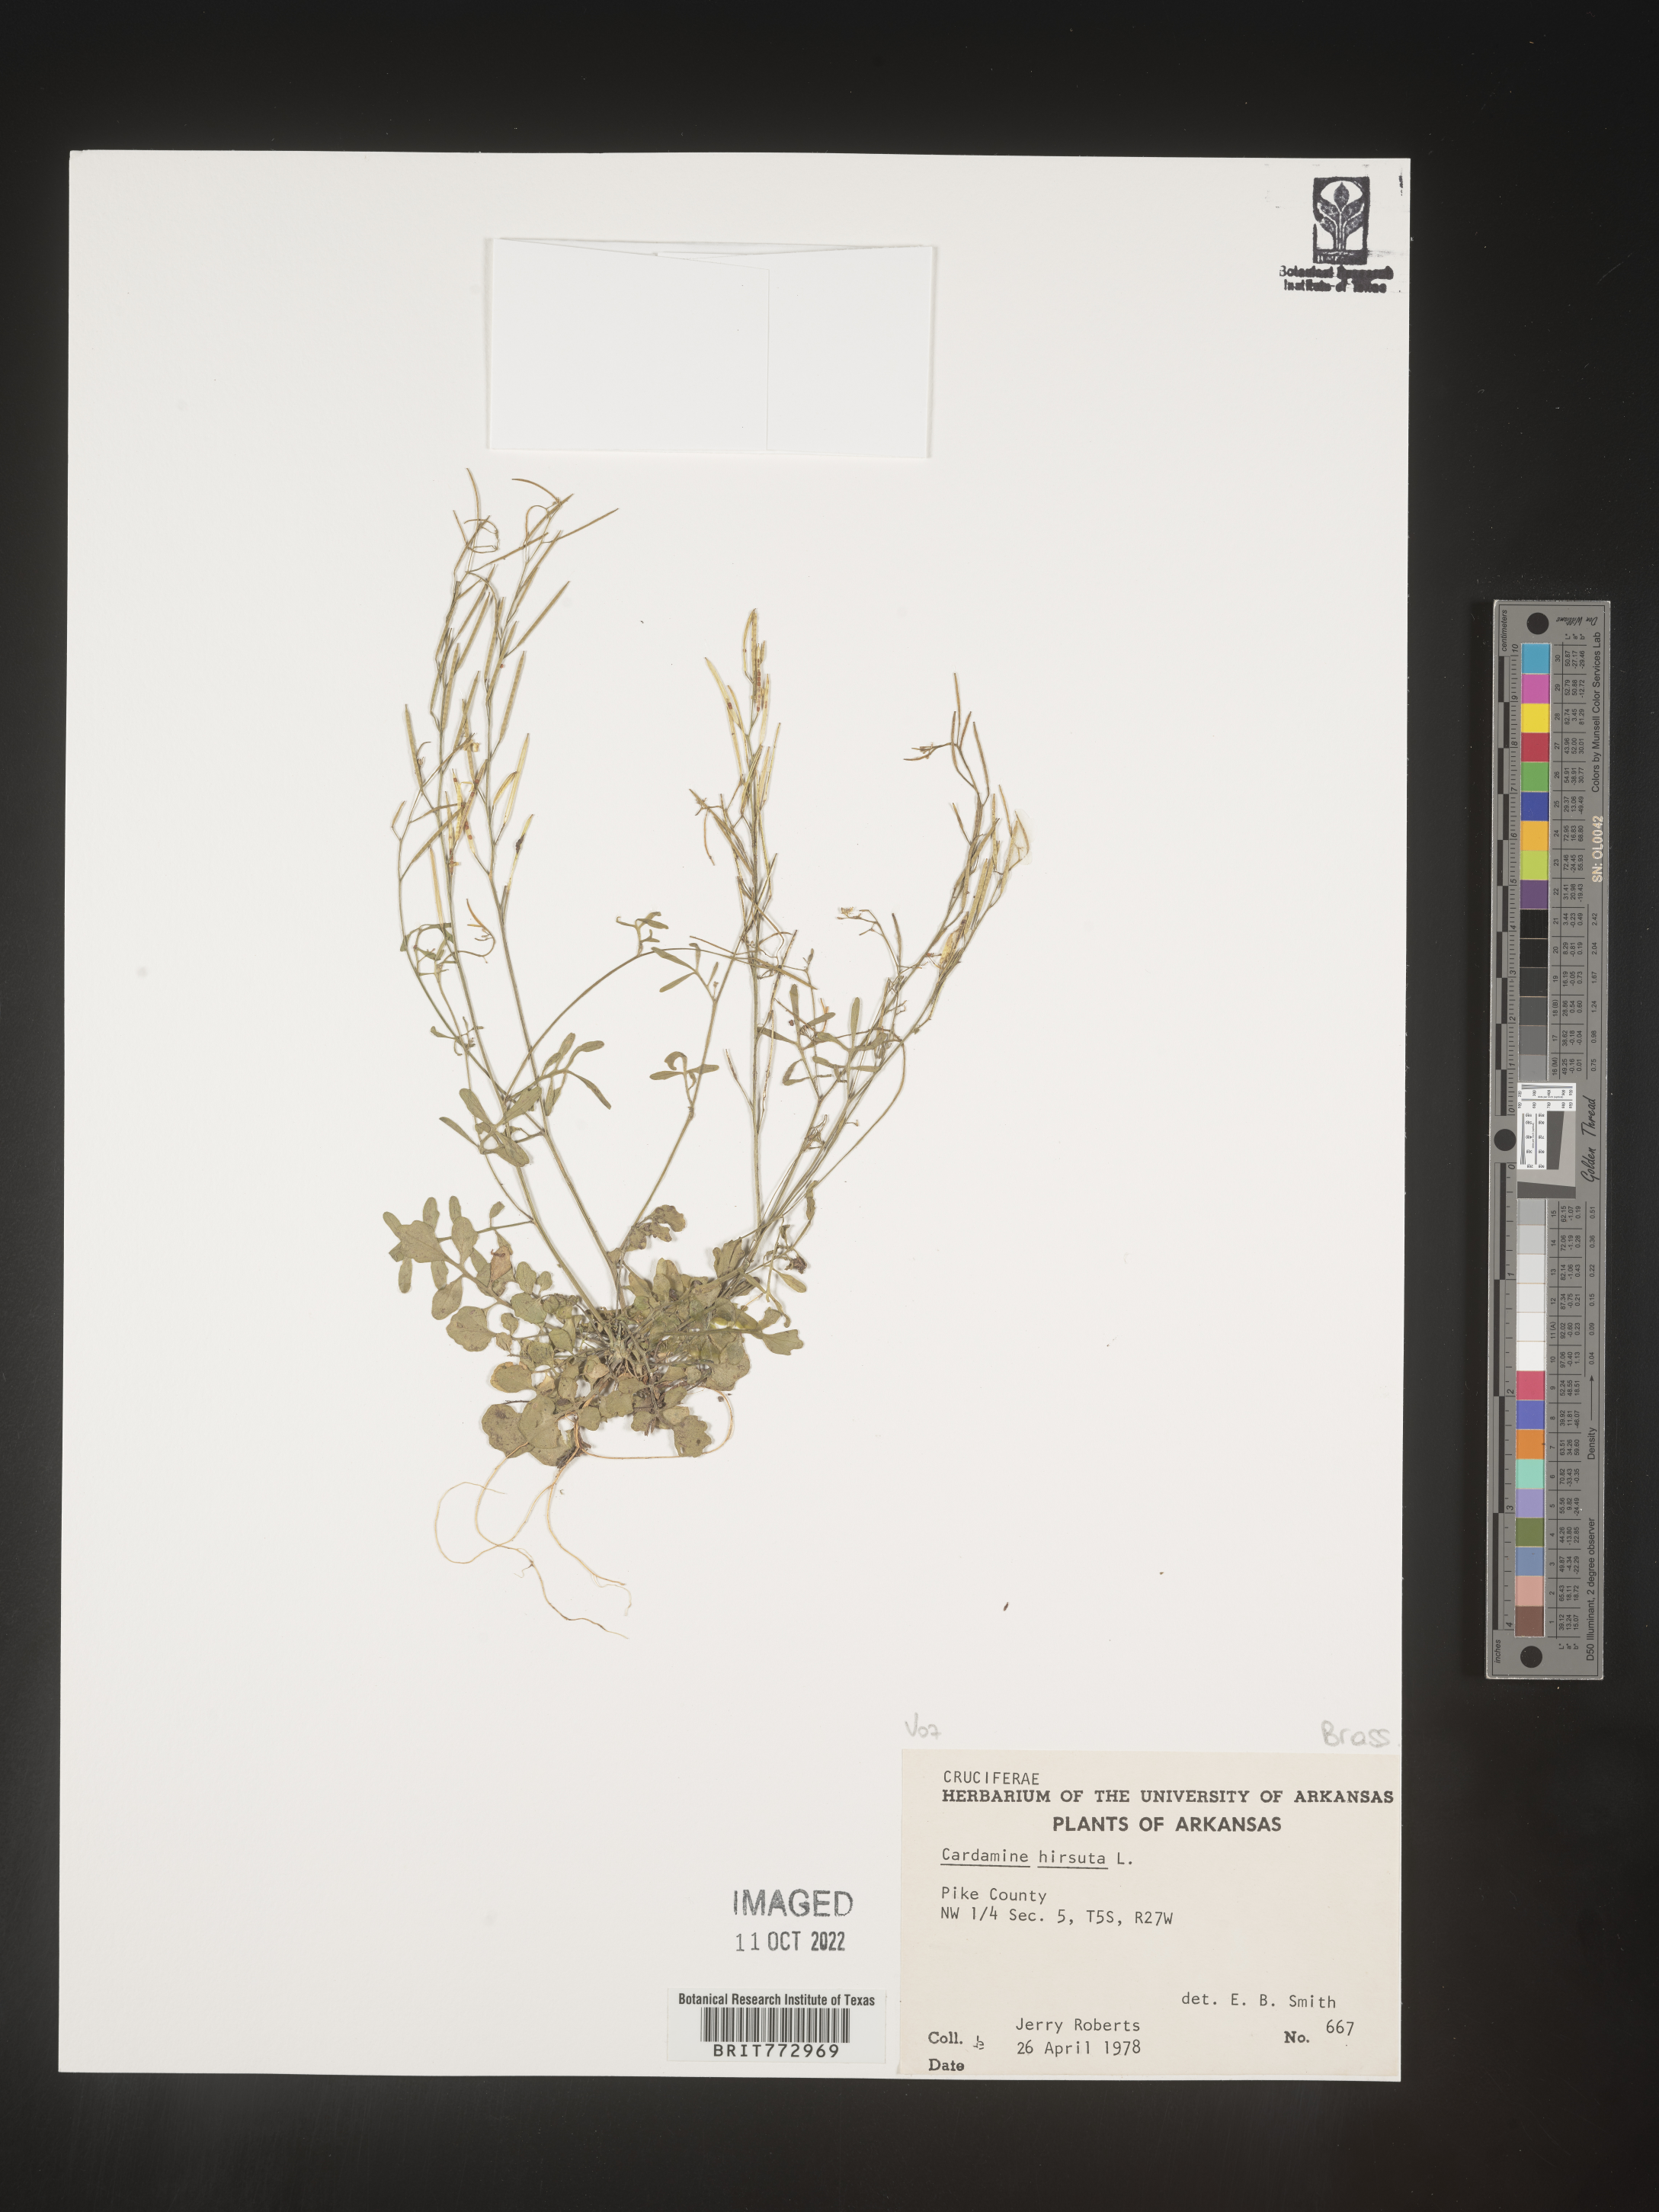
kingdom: Plantae
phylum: Tracheophyta
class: Magnoliopsida
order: Brassicales
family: Brassicaceae
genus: Cardamine
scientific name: Cardamine hirsuta
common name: Hairy bittercress
